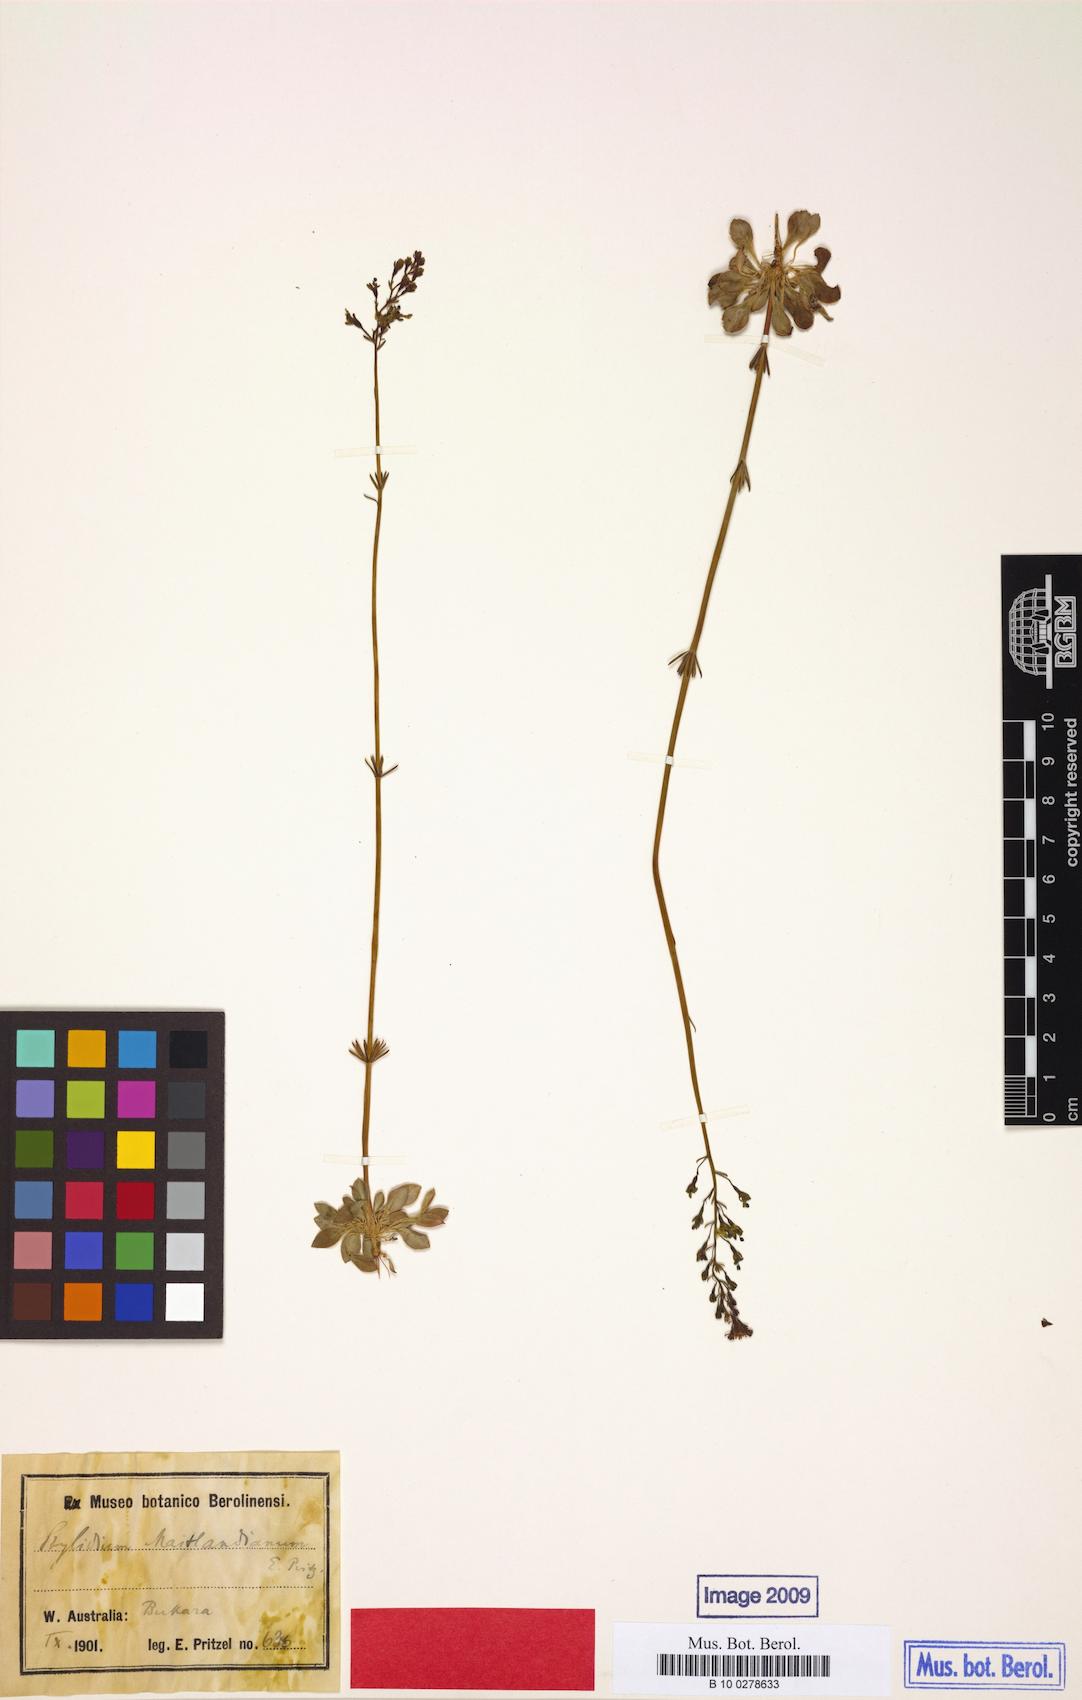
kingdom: Plantae
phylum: Tracheophyta
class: Magnoliopsida
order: Asterales
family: Stylidiaceae
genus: Stylidium
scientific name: Stylidium maitlandianum
